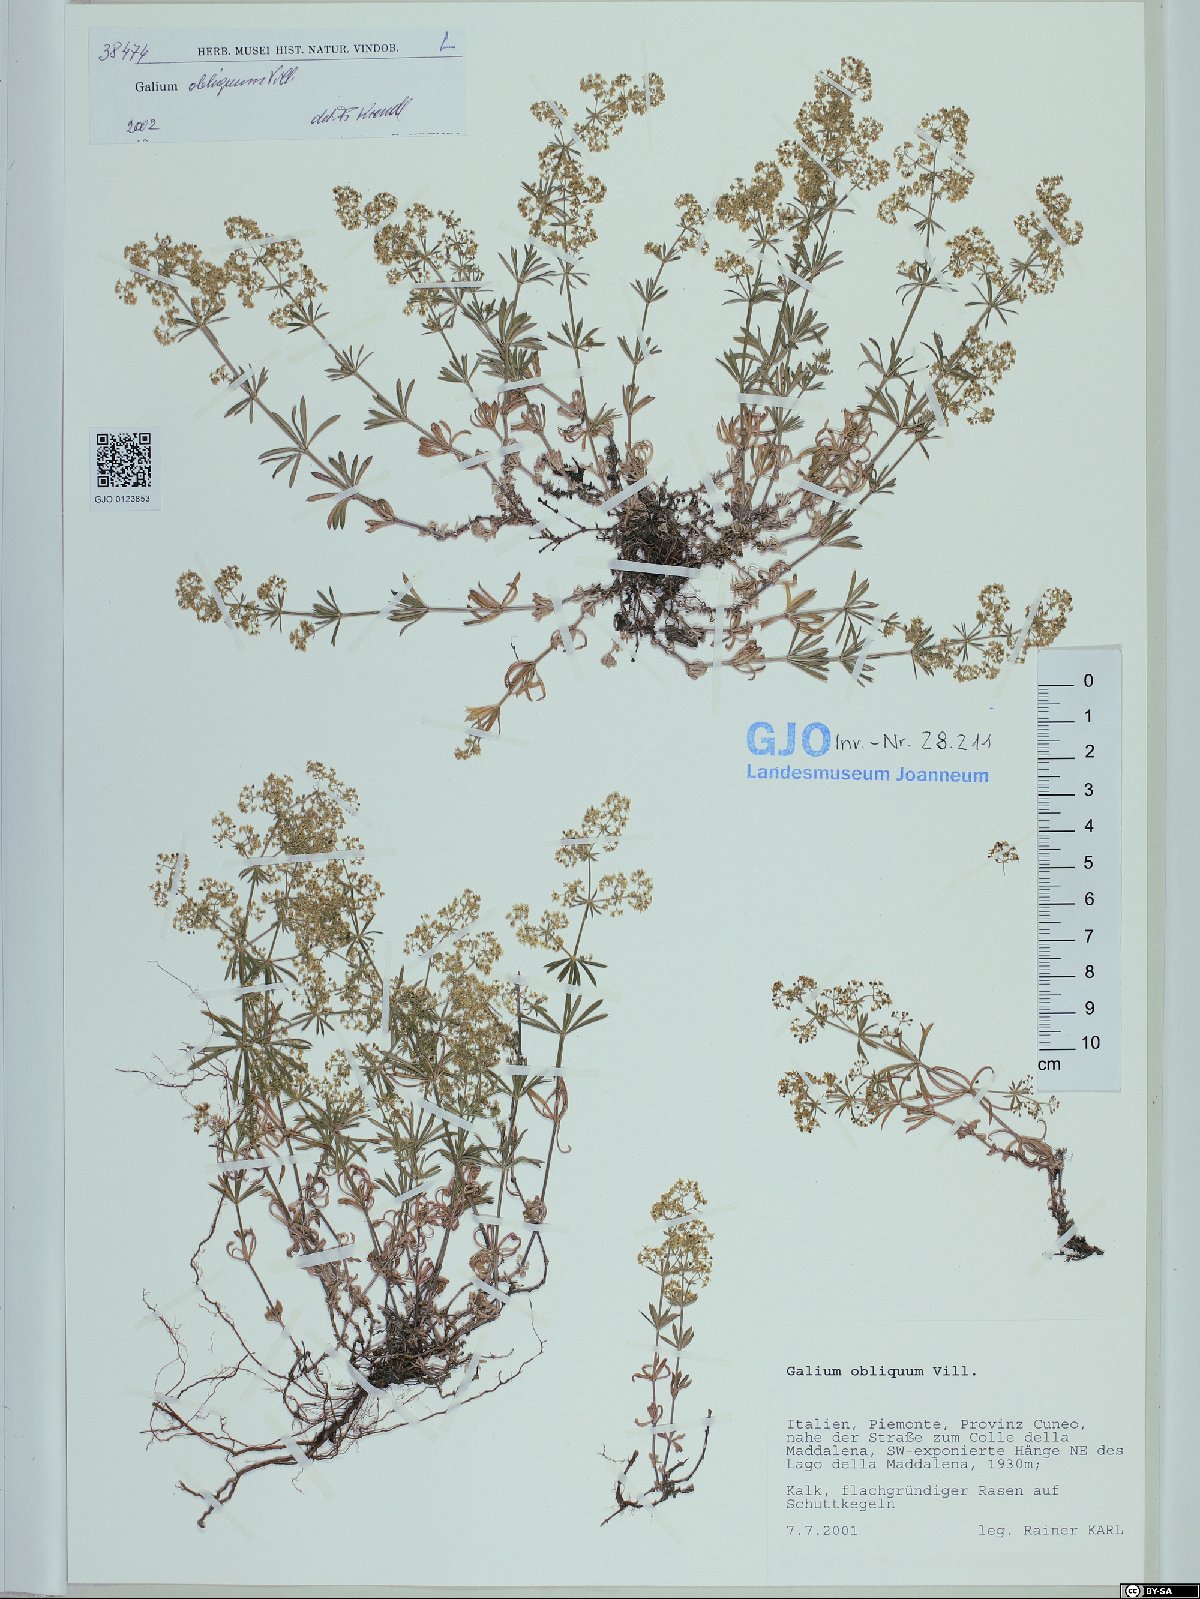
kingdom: Plantae
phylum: Tracheophyta
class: Magnoliopsida
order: Gentianales
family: Rubiaceae
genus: Galium
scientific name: Galium obliquum
